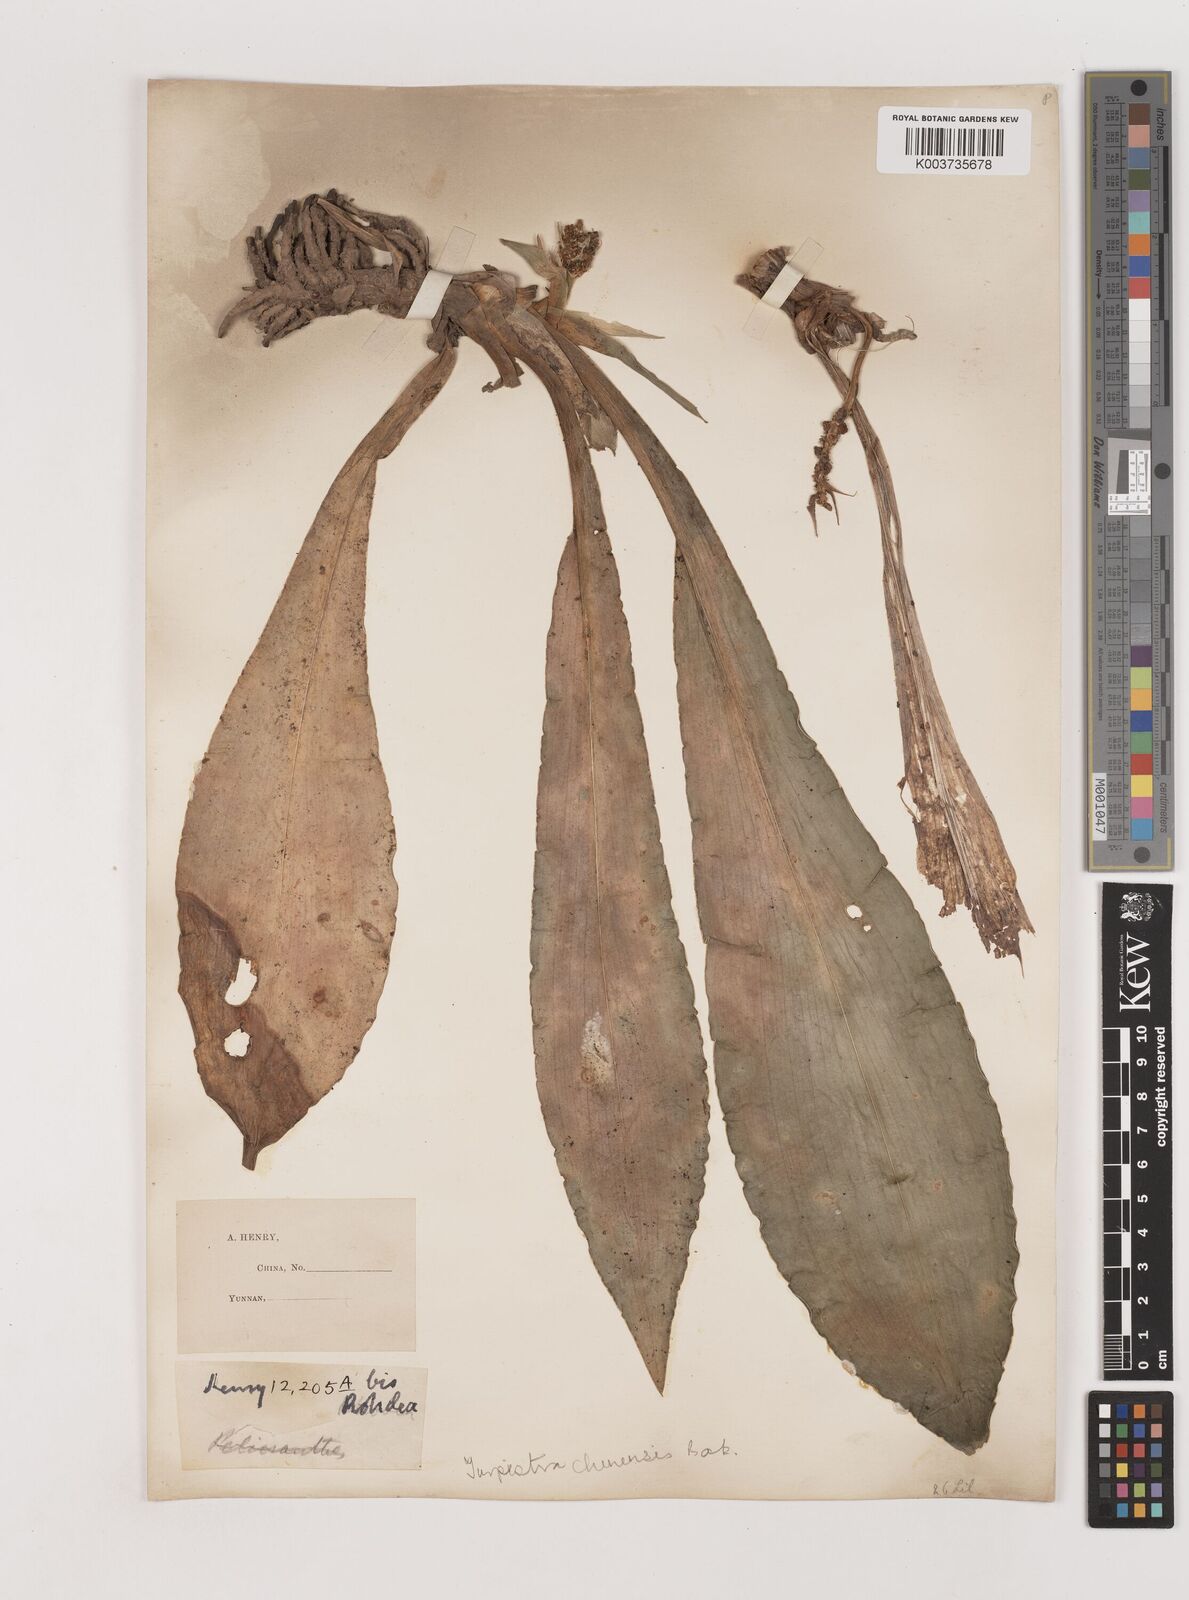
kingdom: Plantae
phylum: Tracheophyta
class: Liliopsida
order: Asparagales
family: Asparagaceae
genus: Rohdea
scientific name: Rohdea fargesii
